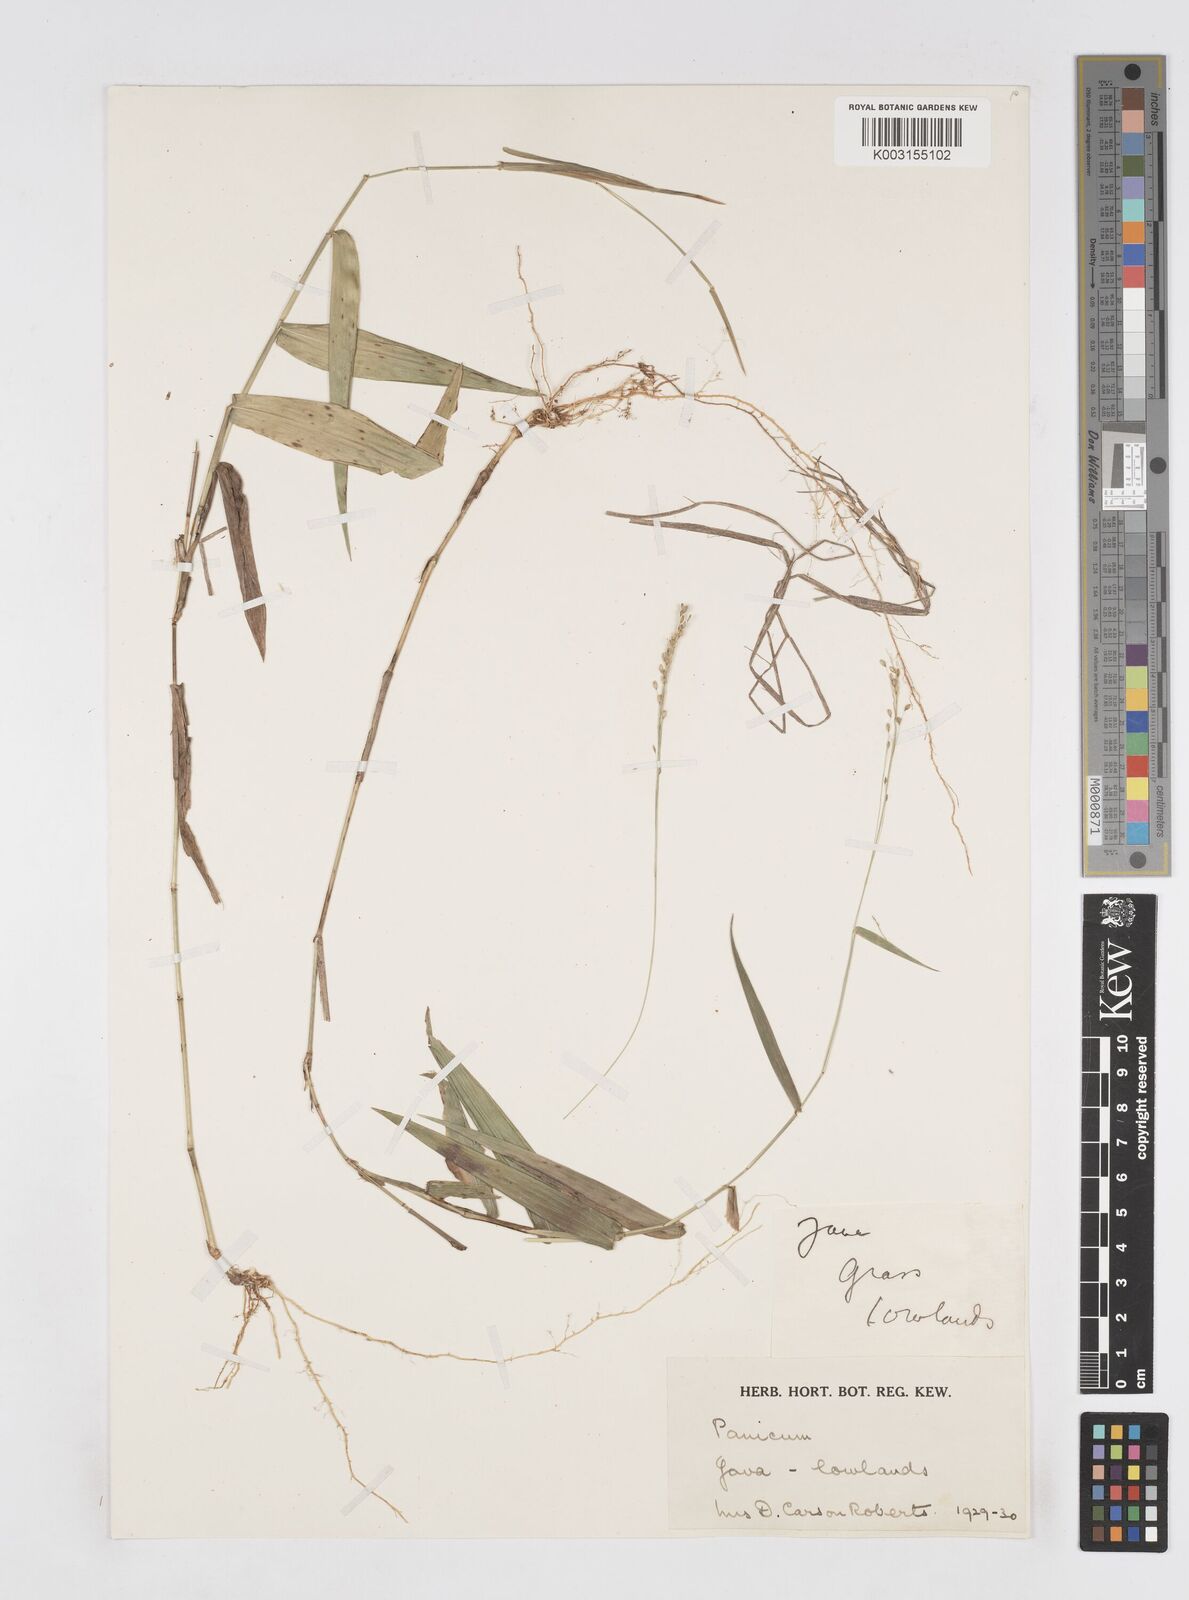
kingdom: Plantae
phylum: Tracheophyta
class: Liliopsida
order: Poales
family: Poaceae
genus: Isachne
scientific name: Isachne
